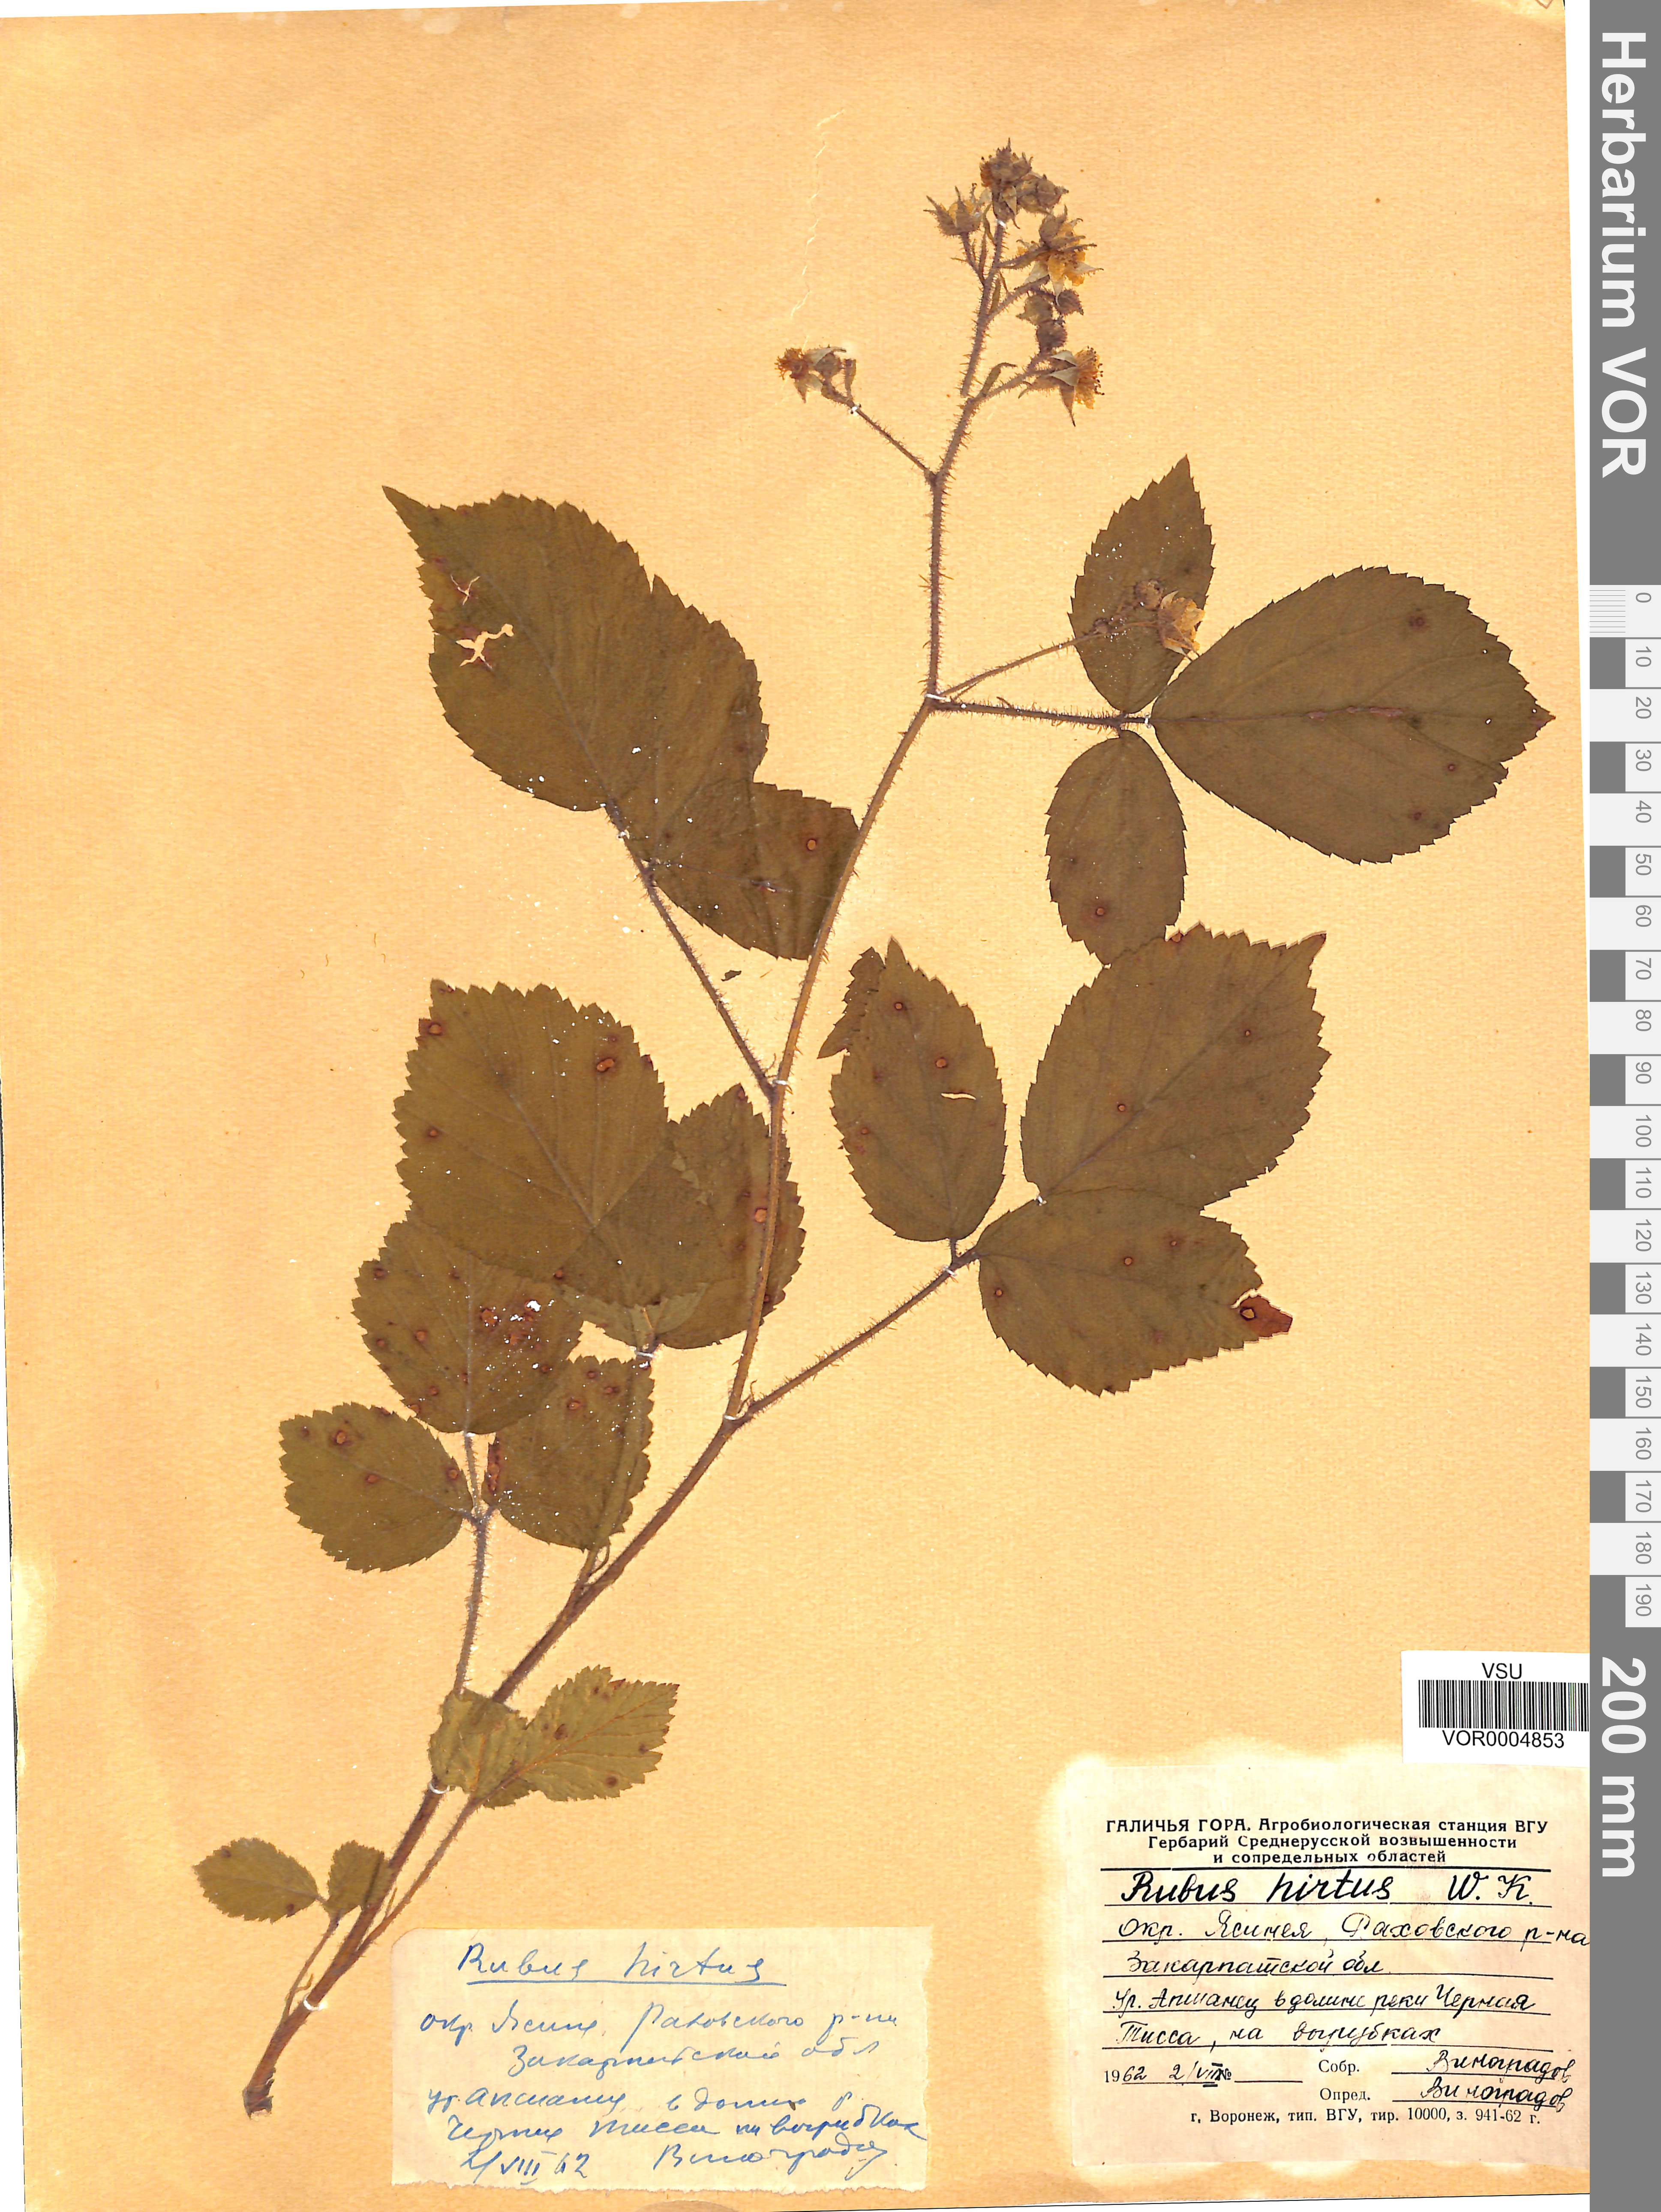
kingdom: Plantae
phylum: Tracheophyta
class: Magnoliopsida
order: Rosales
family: Rosaceae
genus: Rubus
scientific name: Rubus hirtus
